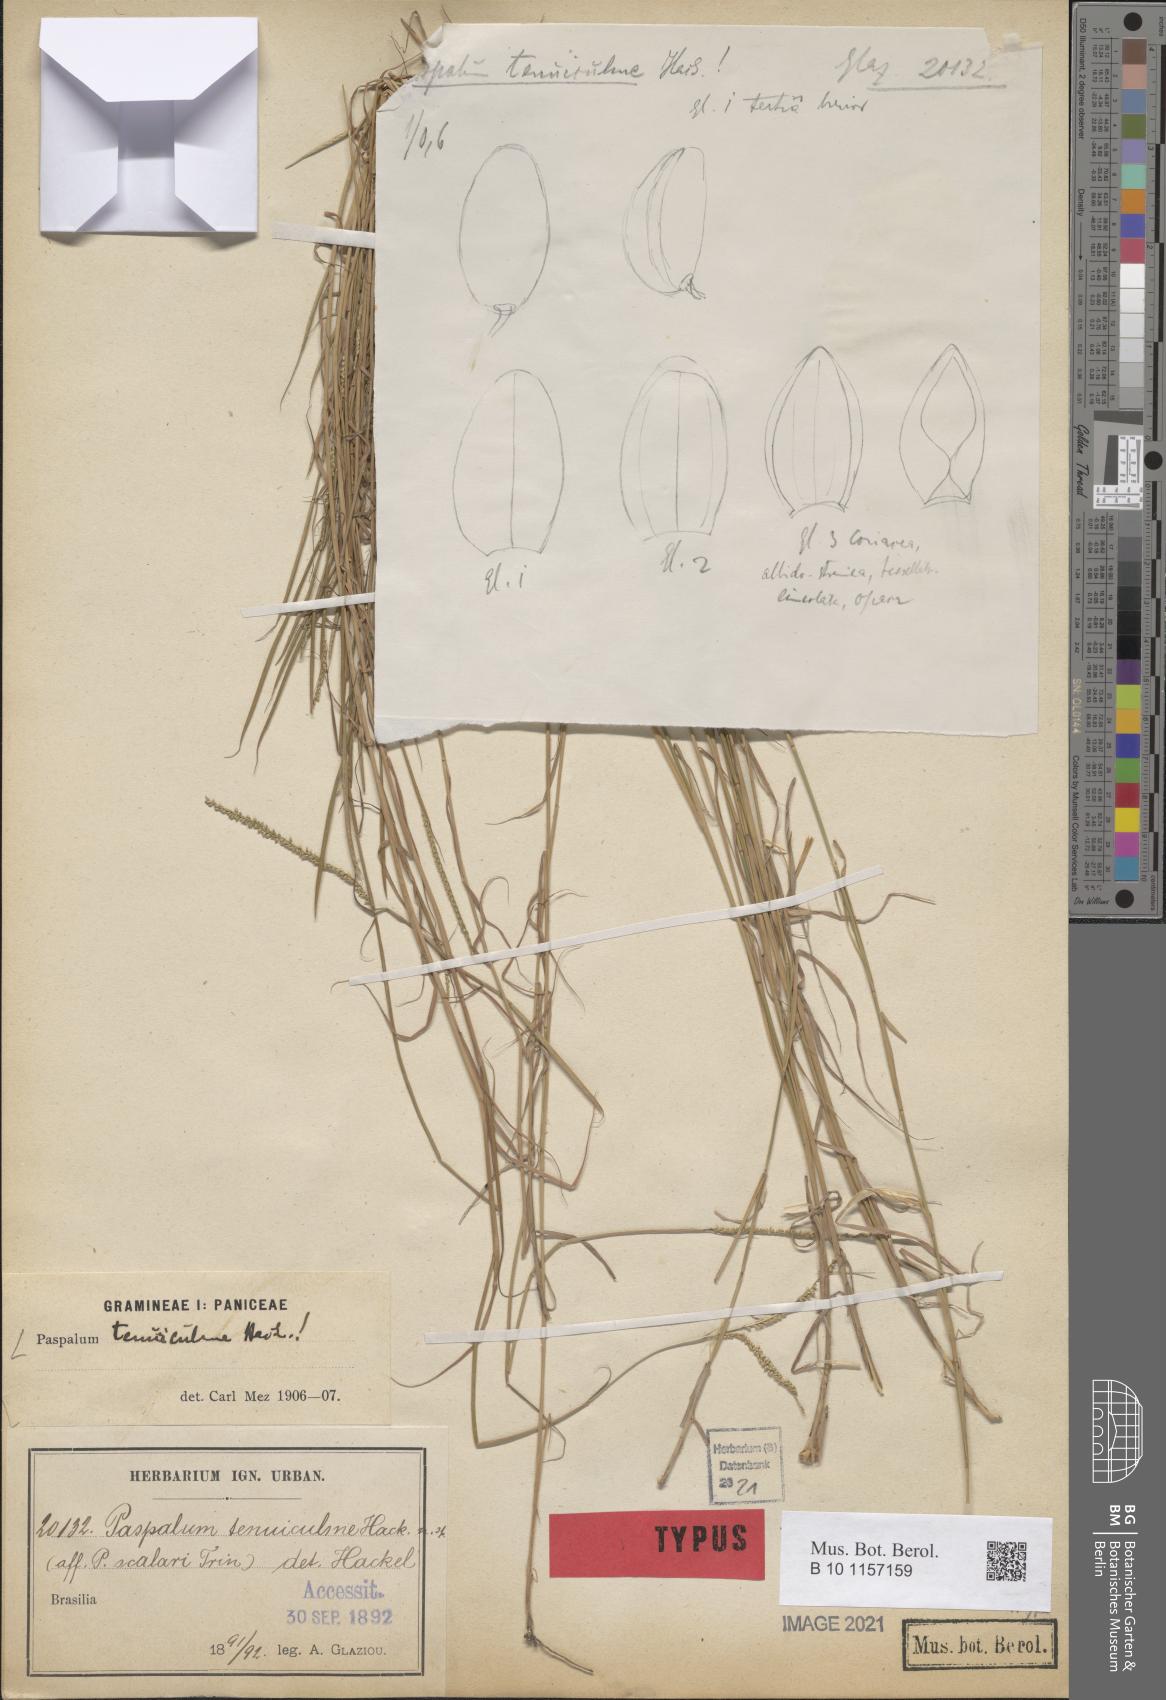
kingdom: Plantae
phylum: Tracheophyta
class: Liliopsida
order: Poales
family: Poaceae
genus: Paspalum
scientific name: Paspalum
